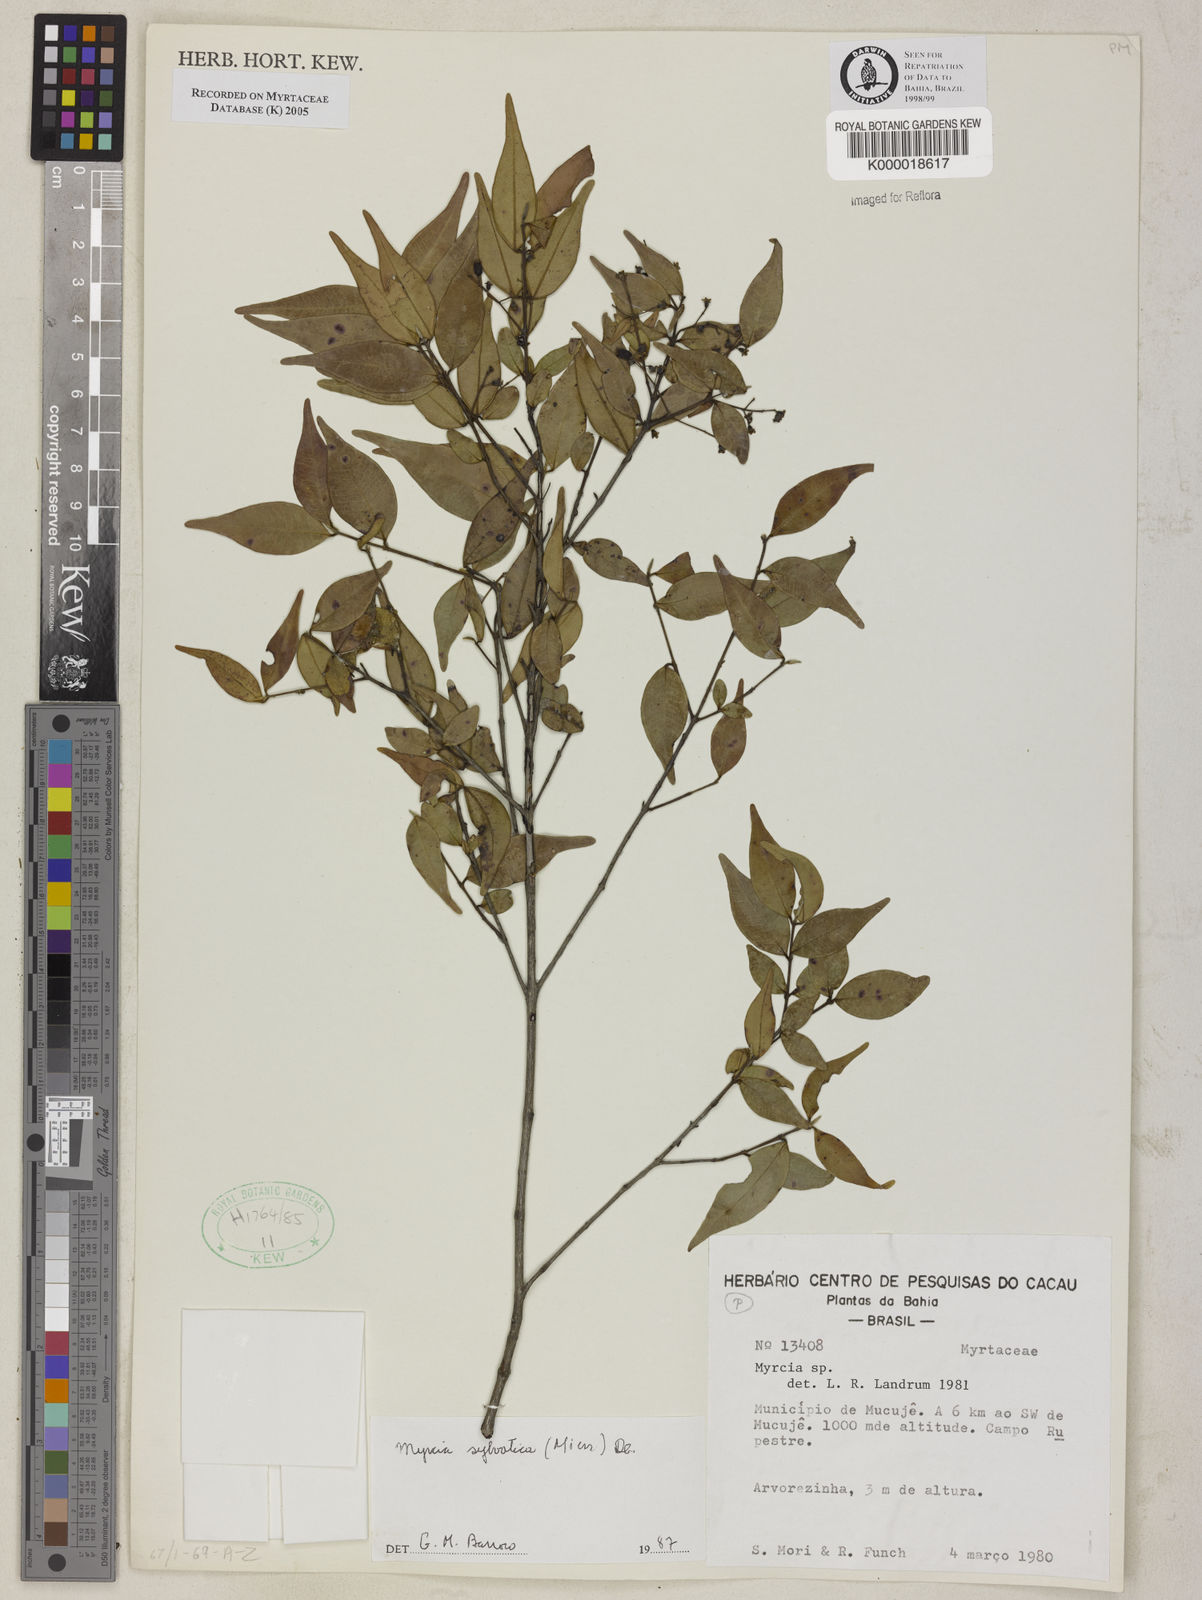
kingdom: Plantae
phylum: Tracheophyta
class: Magnoliopsida
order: Myrtales
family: Myrtaceae
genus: Myrcia
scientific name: Myrcia sylvatica
